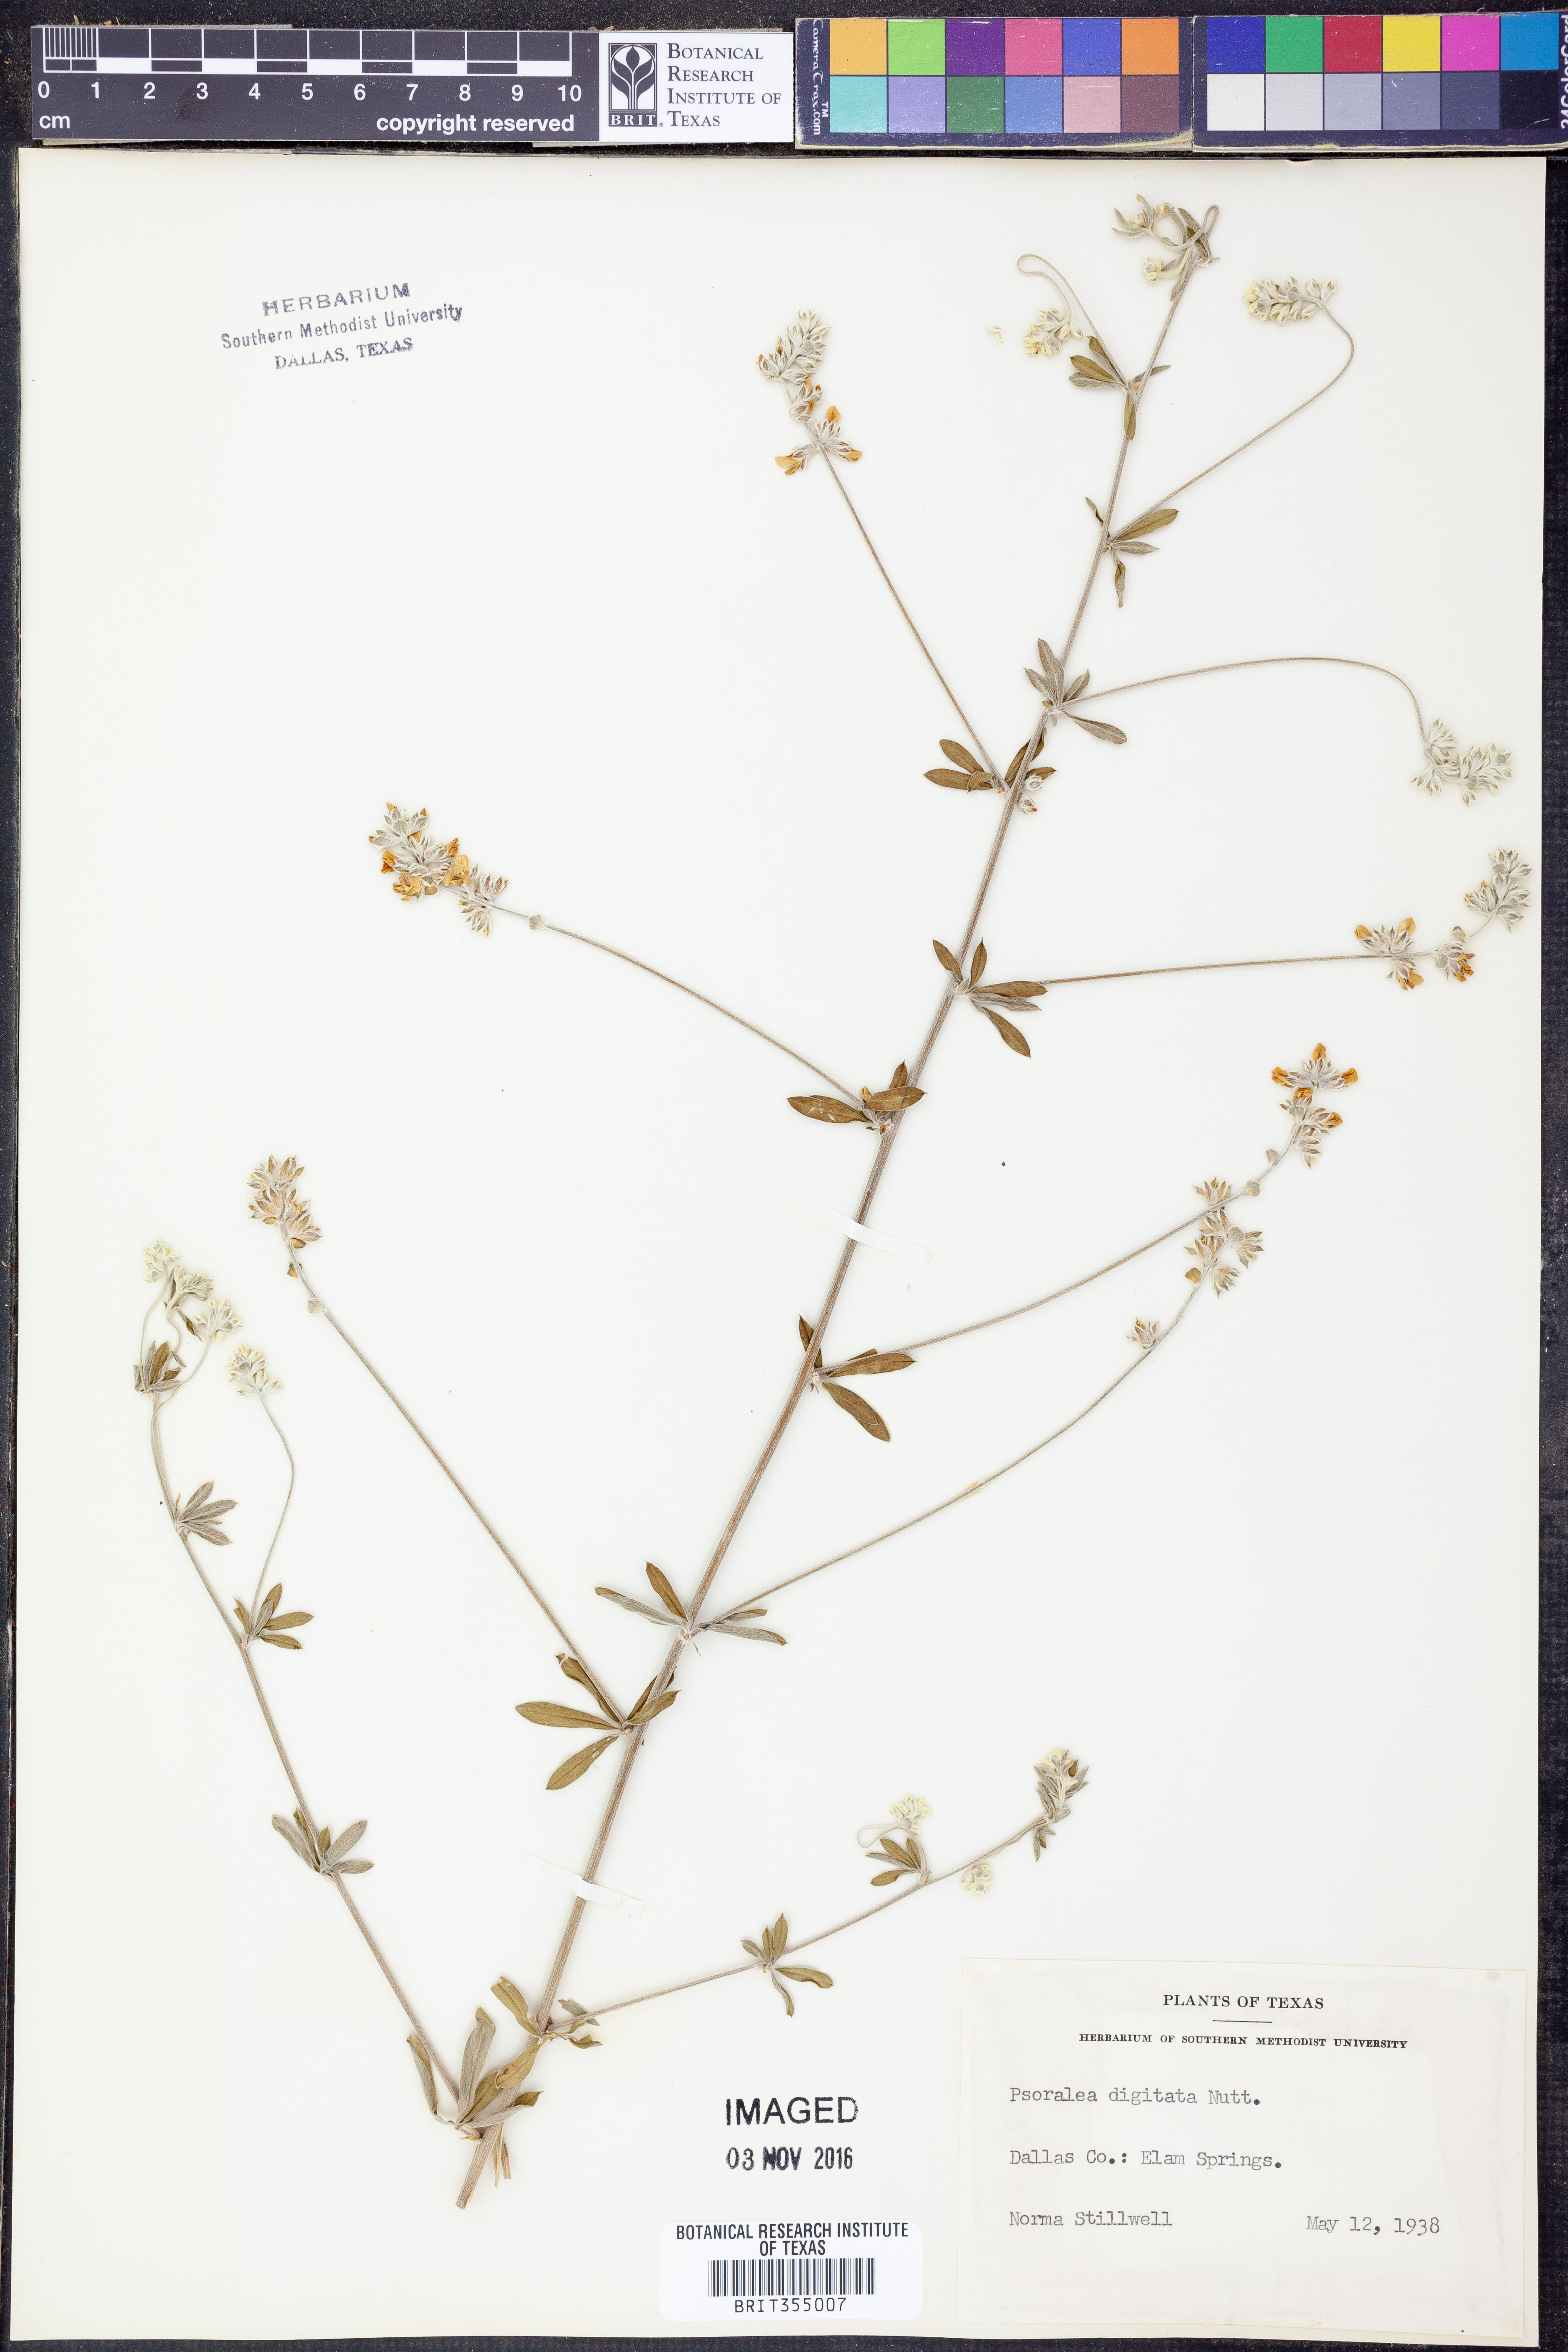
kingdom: Plantae
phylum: Tracheophyta
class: Magnoliopsida
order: Fabales
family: Fabaceae
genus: Pediomelum
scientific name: Pediomelum digitatum
